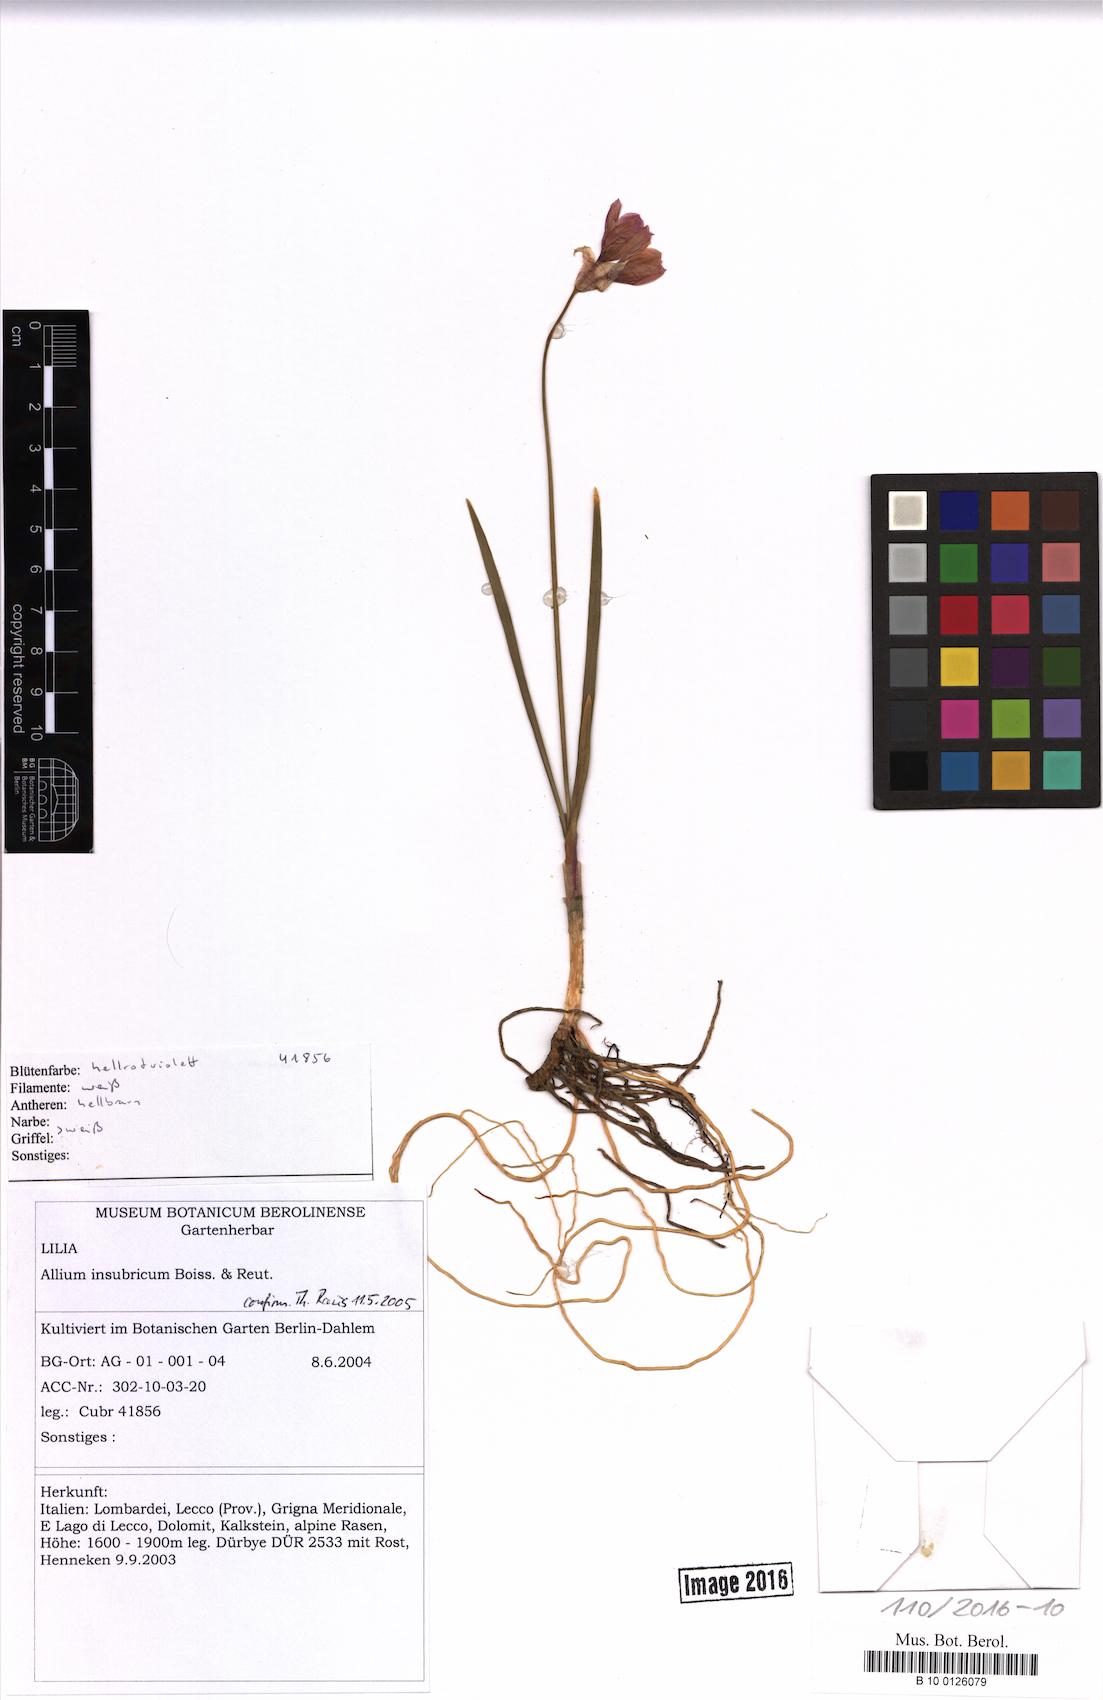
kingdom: Plantae
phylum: Tracheophyta
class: Liliopsida
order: Asparagales
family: Amaryllidaceae
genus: Allium
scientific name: Allium insubricum
